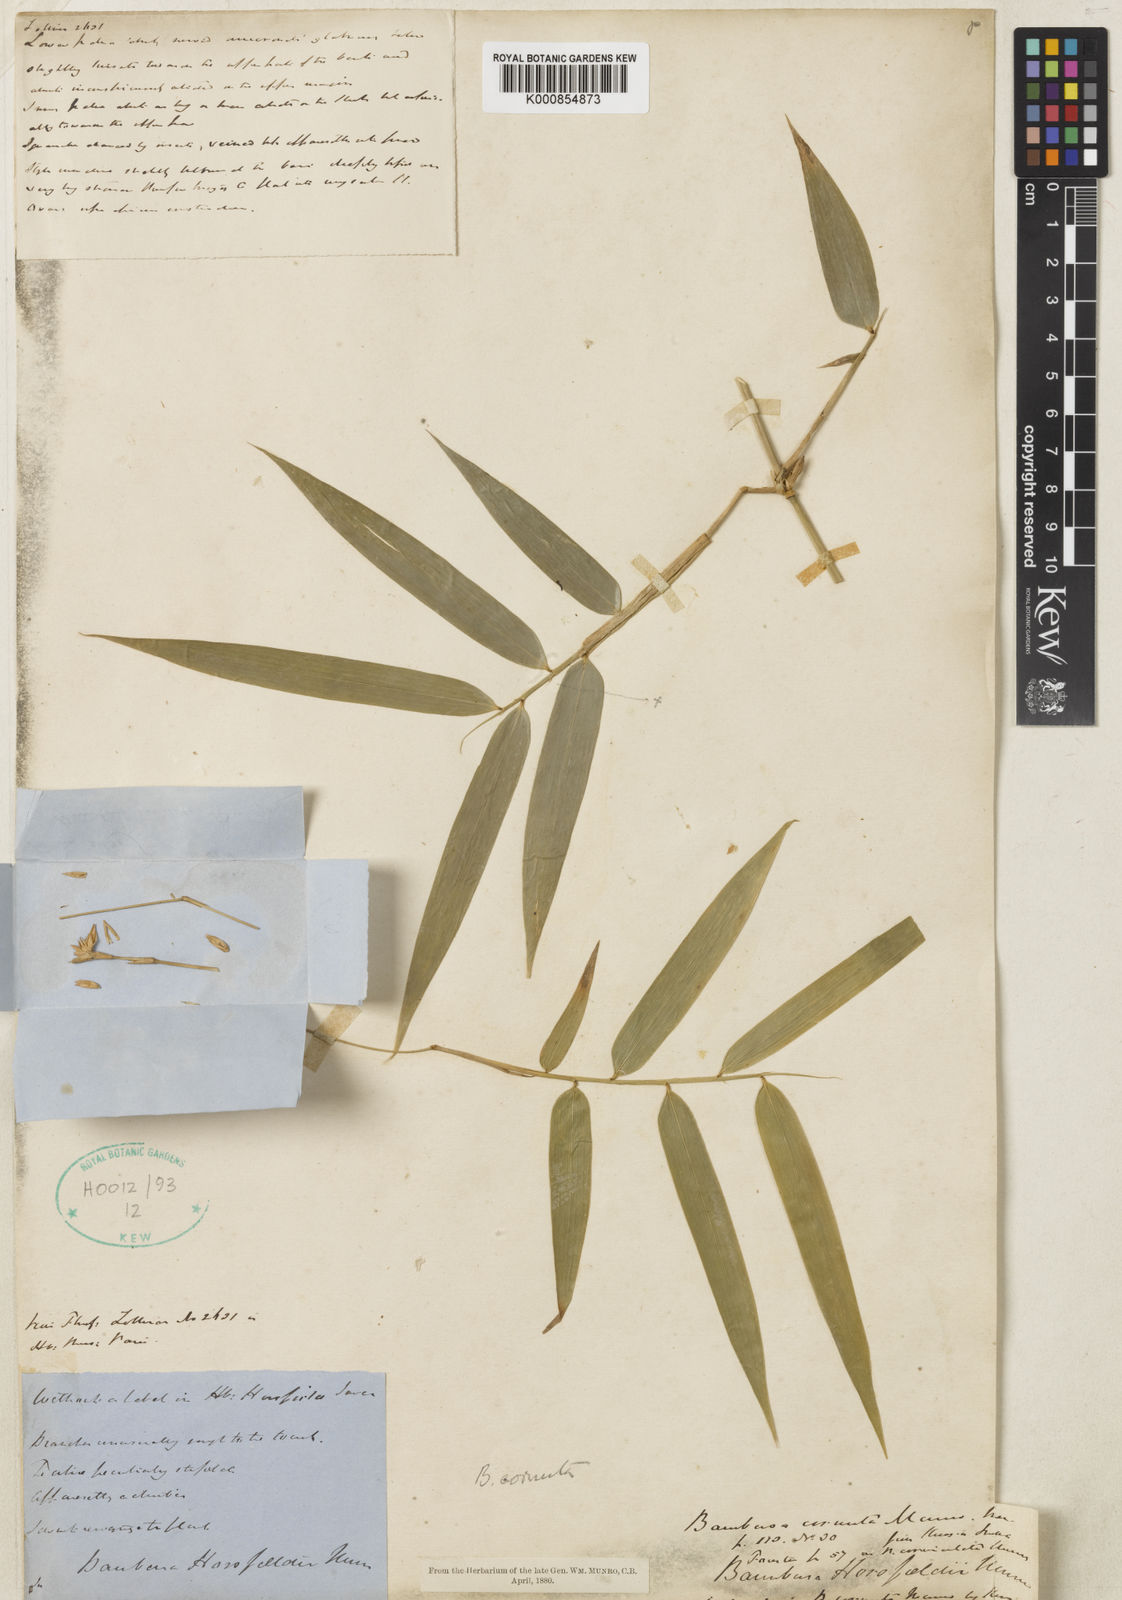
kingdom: Plantae
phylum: Tracheophyta
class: Liliopsida
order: Poales
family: Poaceae
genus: Fimbribambusa
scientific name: Fimbribambusa horsfieldii
